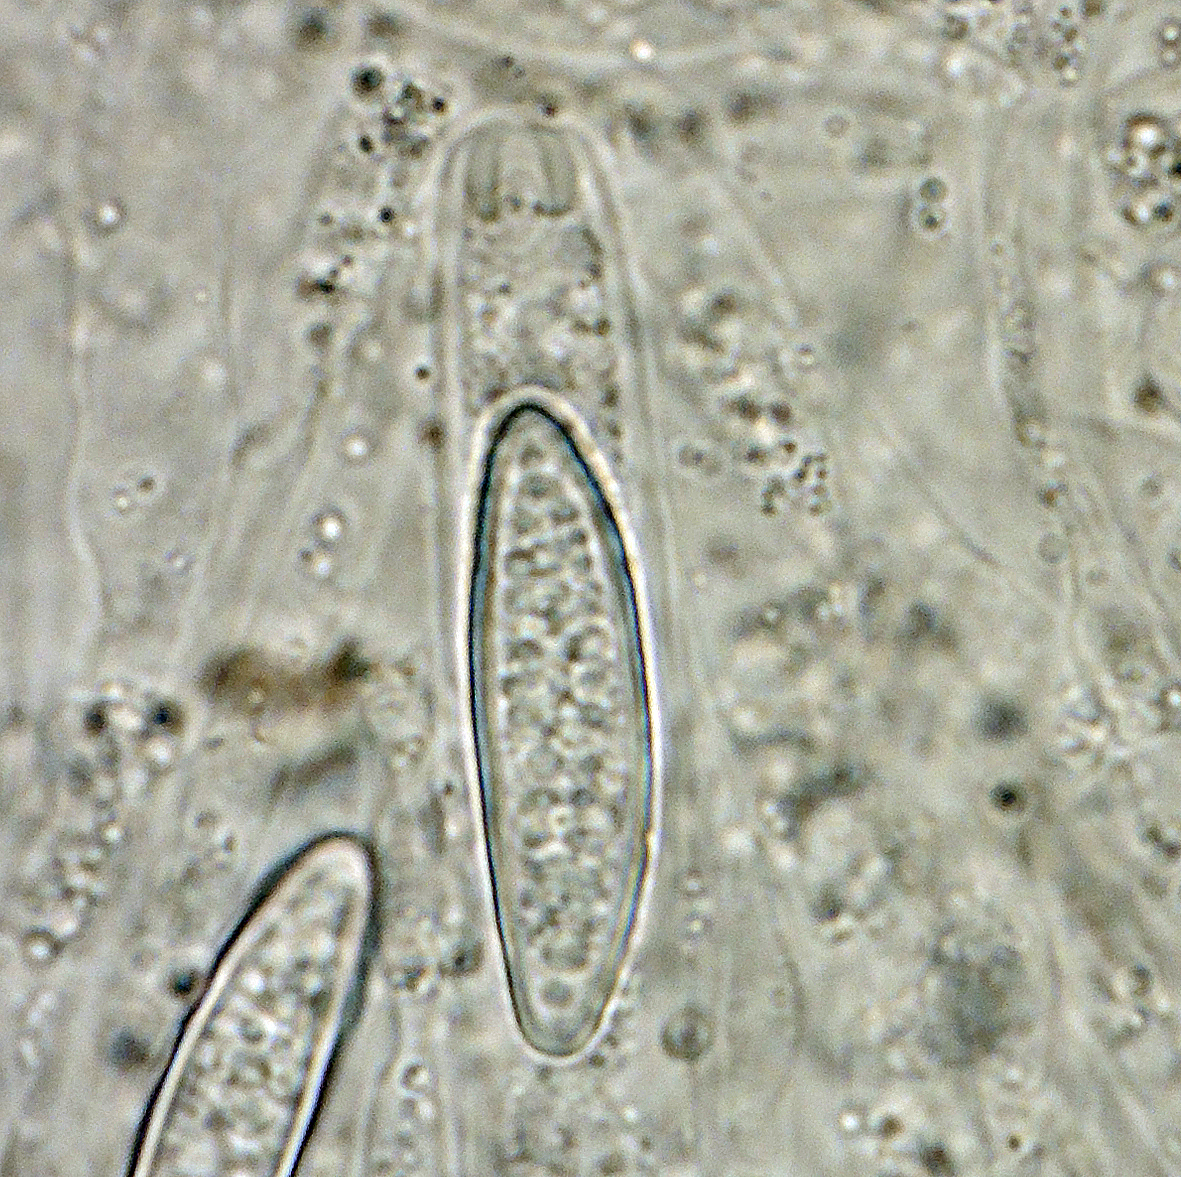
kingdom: Fungi
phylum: Ascomycota
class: Sordariomycetes
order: Boliniales
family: Boliniaceae
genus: Ceratostomella
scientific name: Ceratostomella dubia
